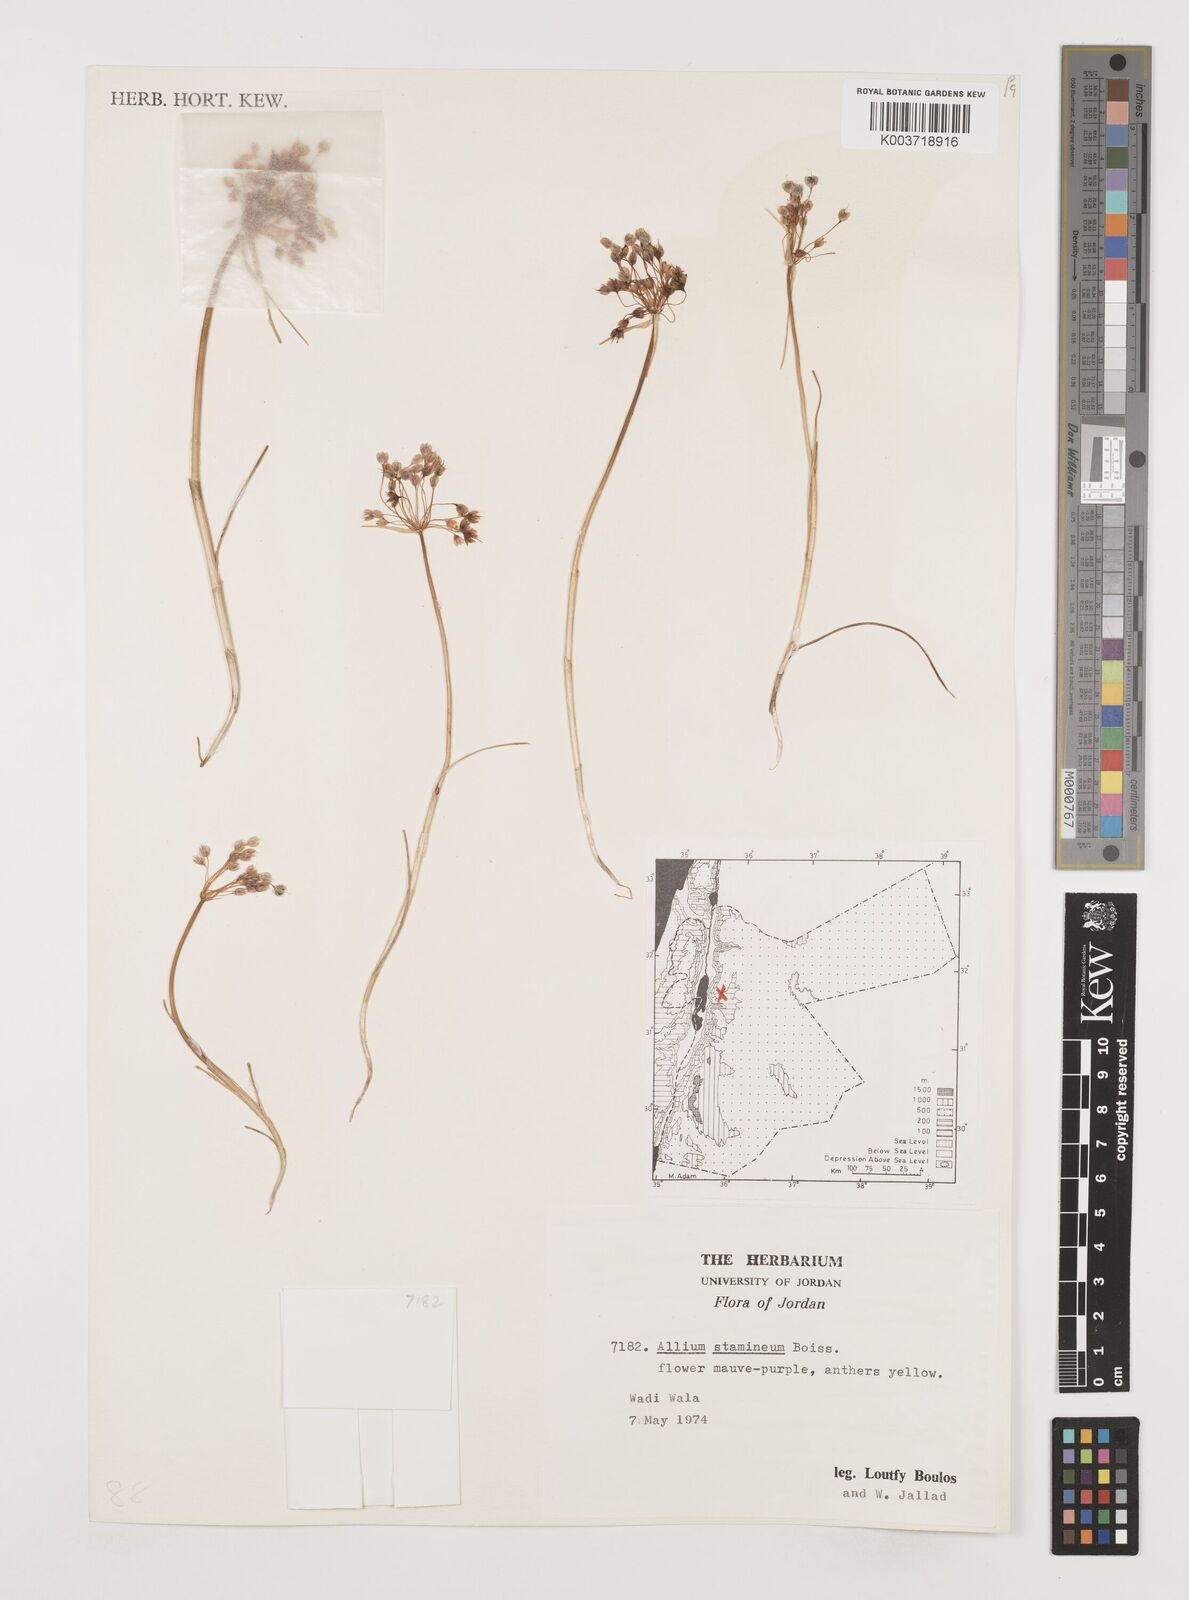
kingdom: Plantae
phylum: Tracheophyta
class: Liliopsida
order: Asparagales
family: Amaryllidaceae
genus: Allium
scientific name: Allium stamineum
